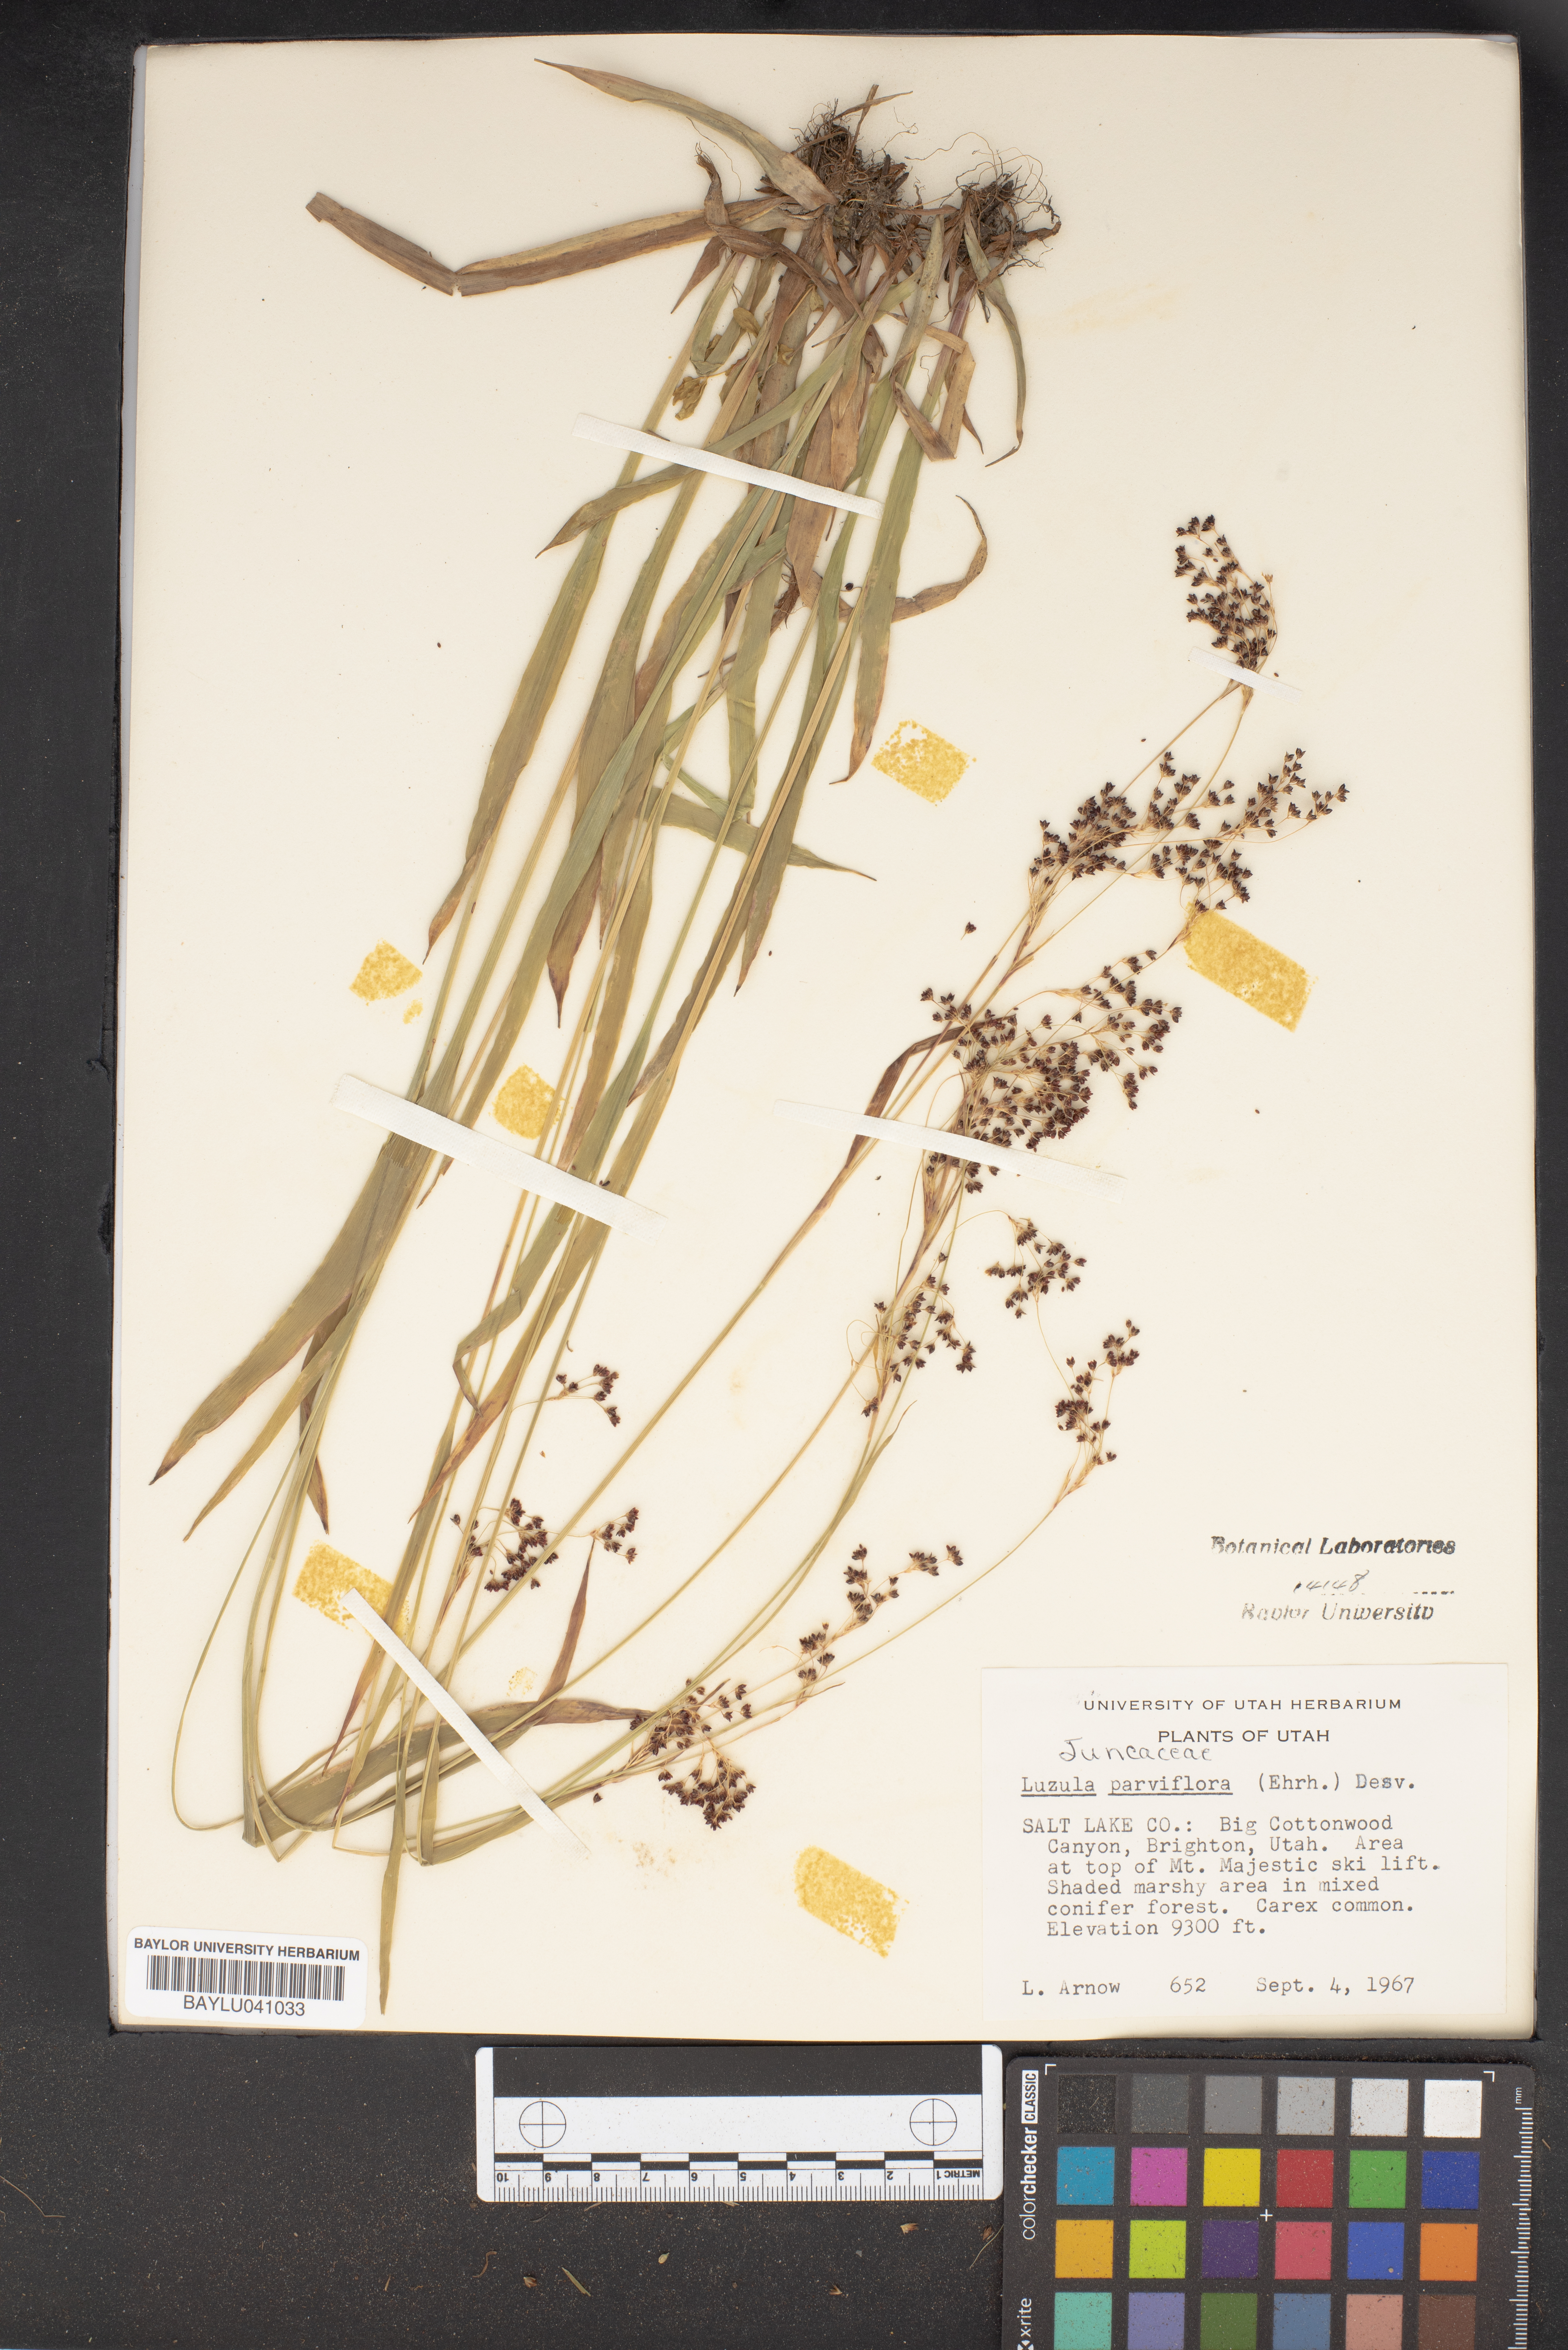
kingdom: Plantae
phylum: Tracheophyta
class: Liliopsida
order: Poales
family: Juncaceae
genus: Luzula
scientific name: Luzula parviflora
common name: Millet woodrush
